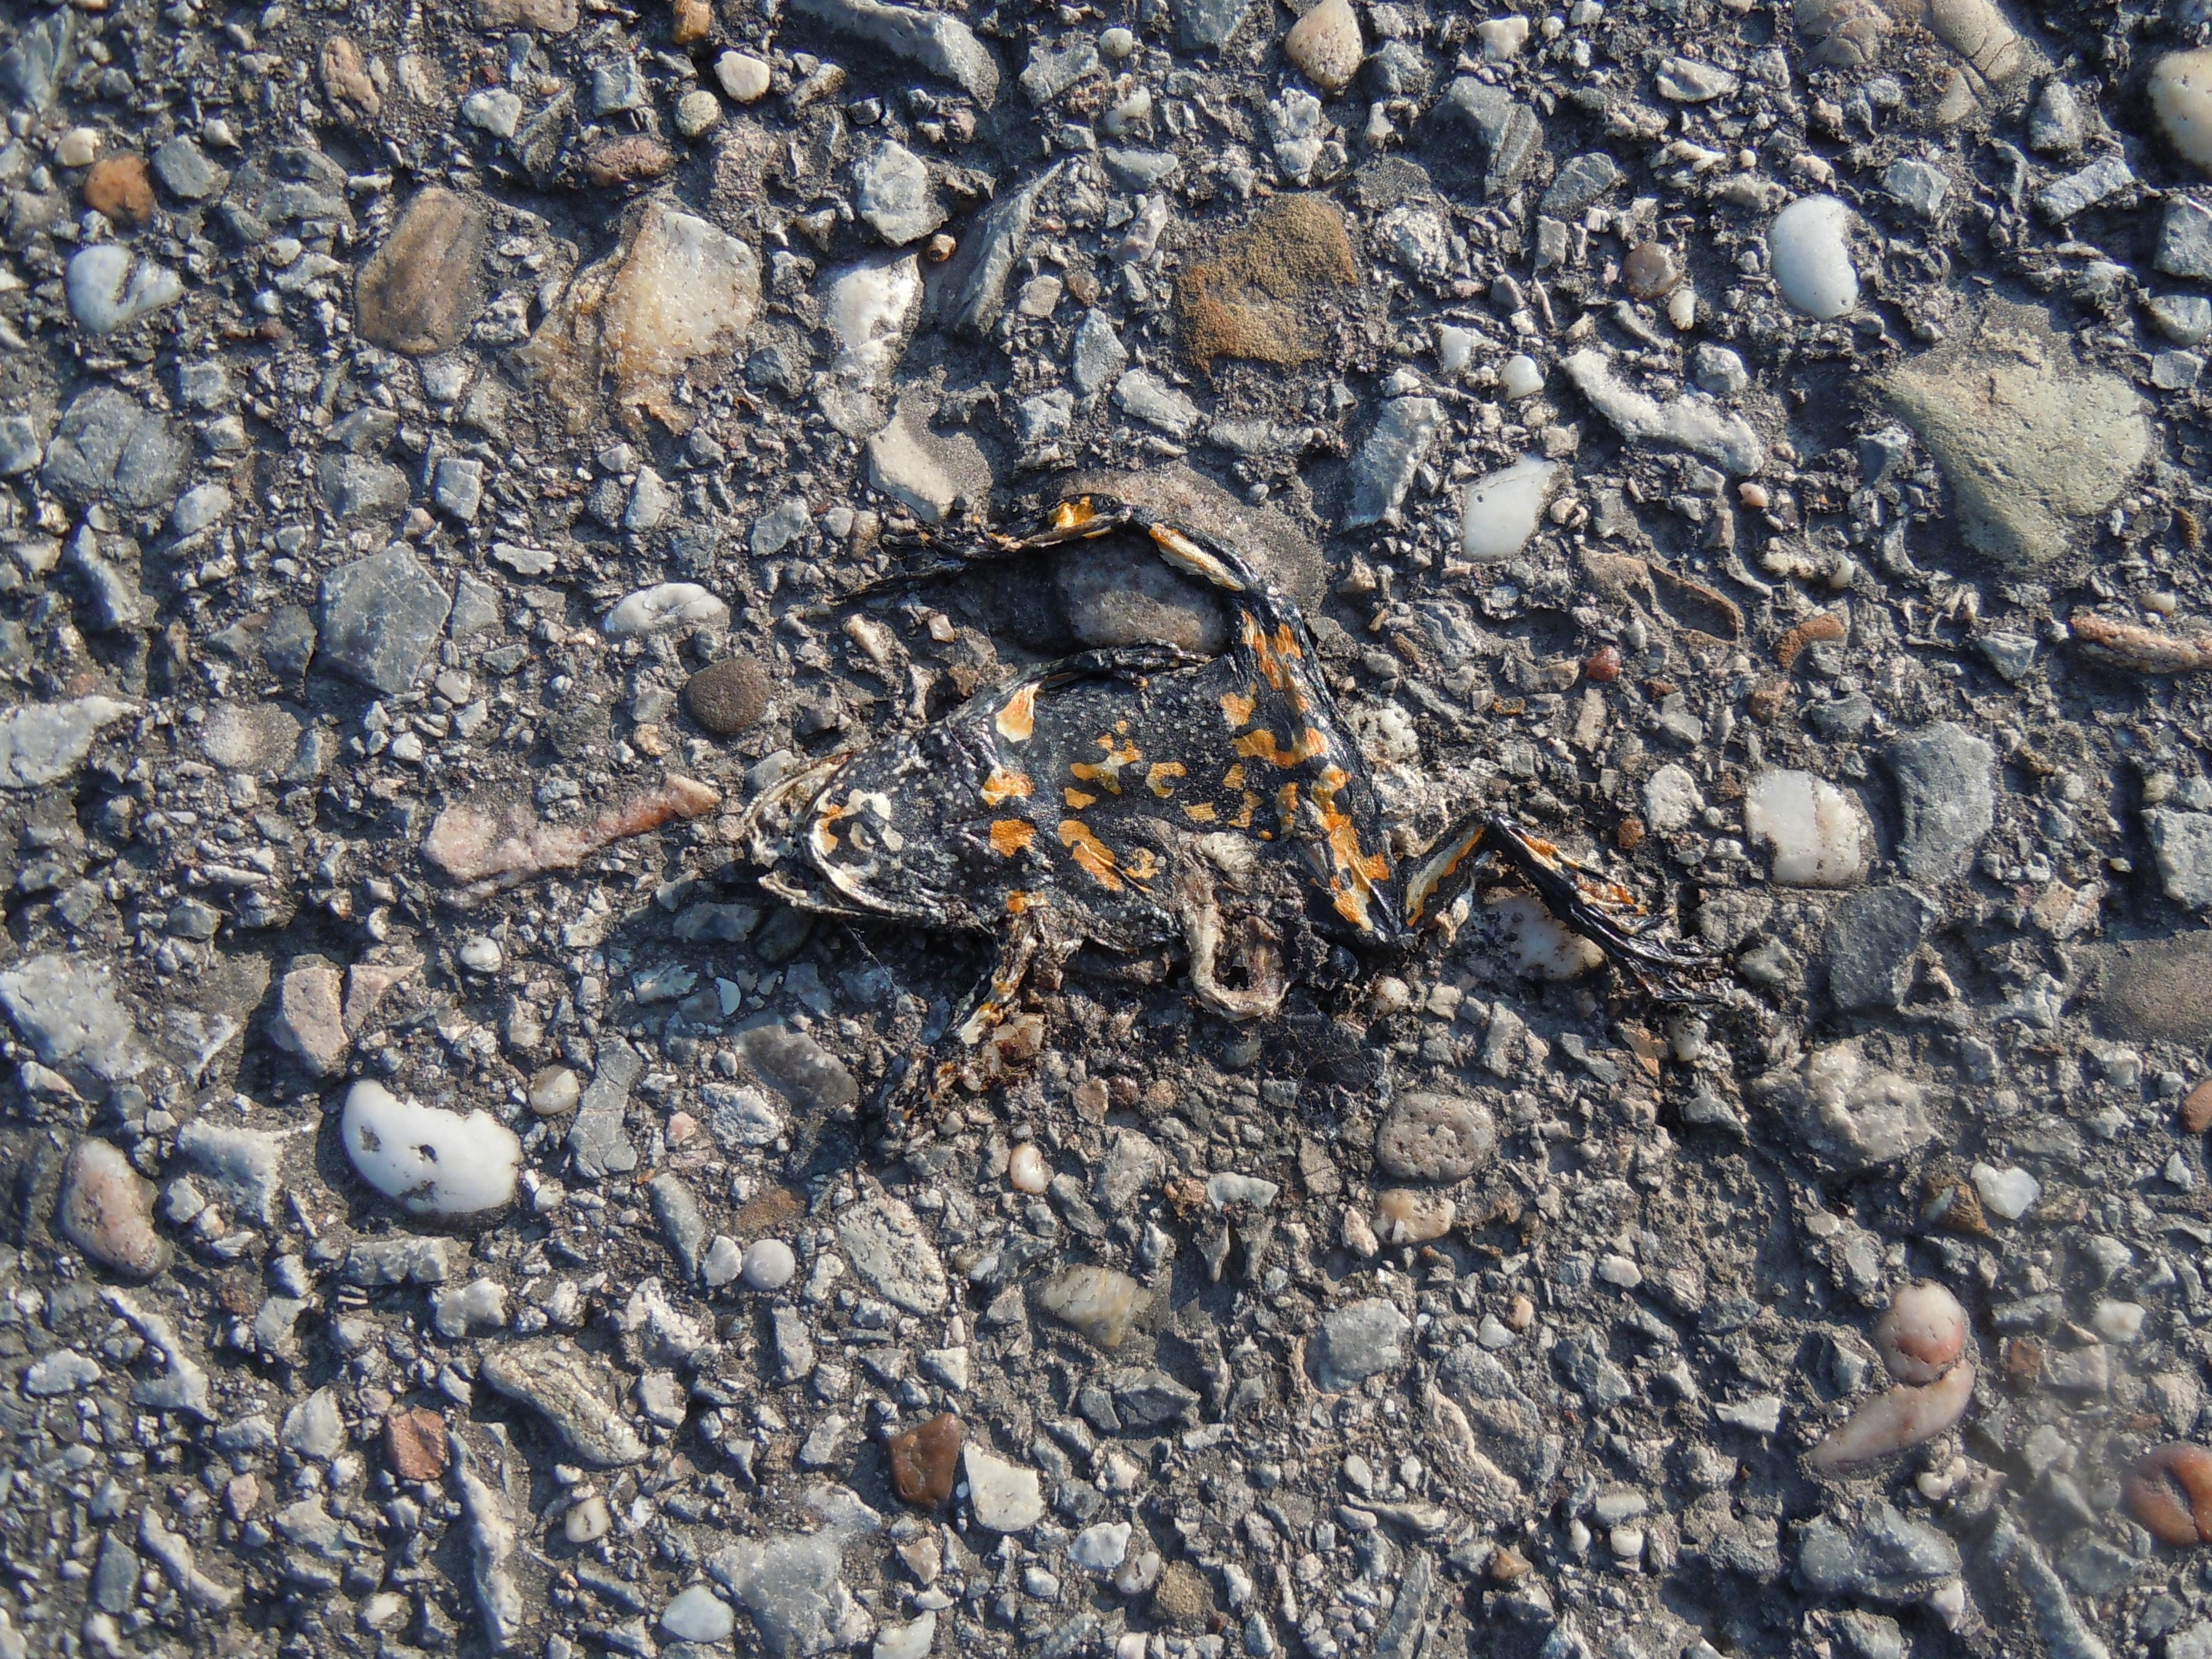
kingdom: Animalia
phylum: Chordata
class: Amphibia
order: Anura
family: Bombinatoridae
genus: Bombina
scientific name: Bombina bombina
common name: Fire-bellied toad
